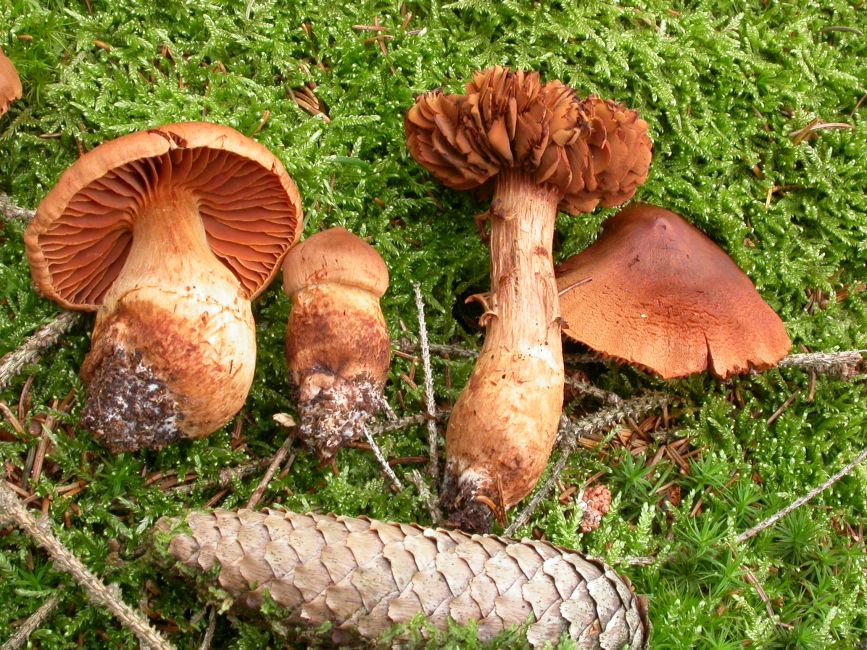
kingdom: Fungi
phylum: Basidiomycota
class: Agaricomycetes
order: Agaricales
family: Cortinariaceae
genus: Cortinarius
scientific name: Cortinarius rubellus
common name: puklet gift-slørhat
